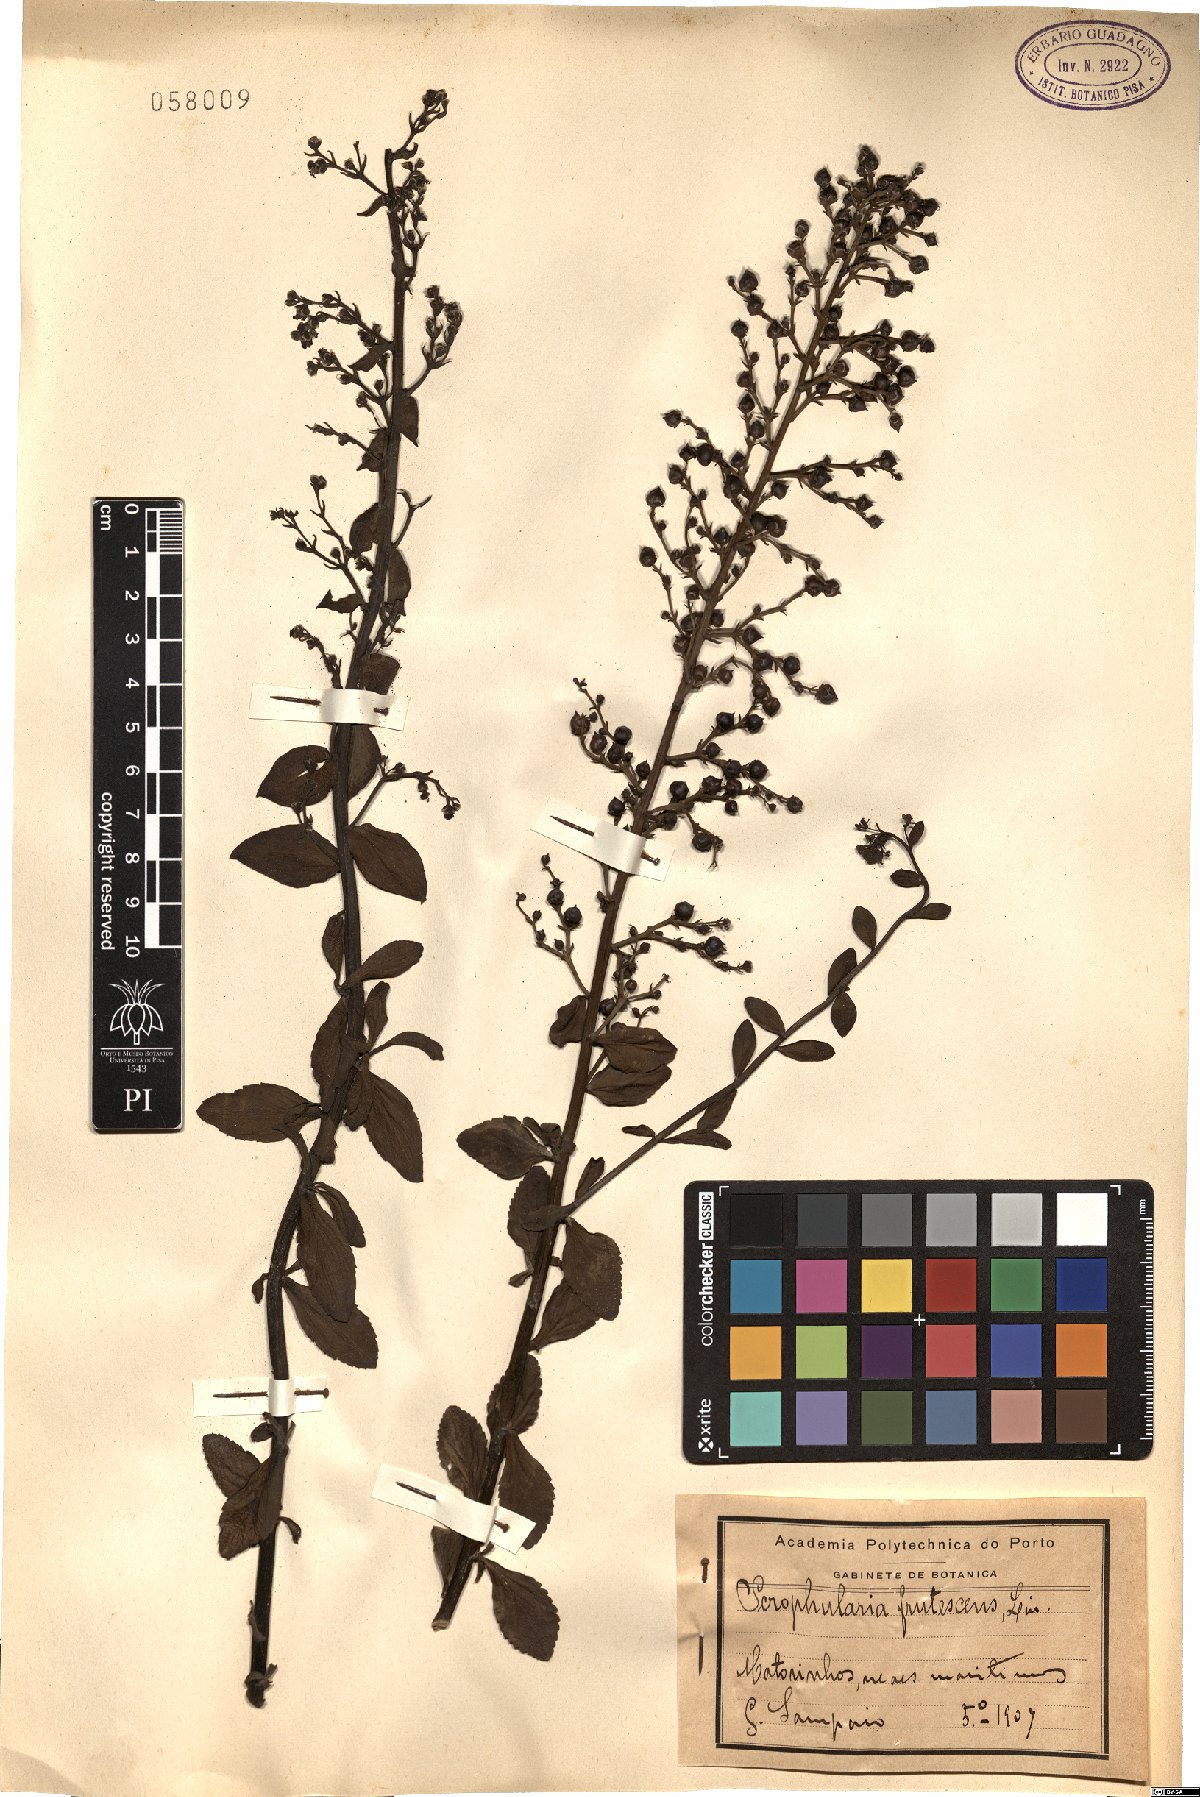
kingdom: Plantae
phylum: Tracheophyta
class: Magnoliopsida
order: Lamiales
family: Scrophulariaceae
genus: Scrophularia
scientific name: Scrophularia frutescens
